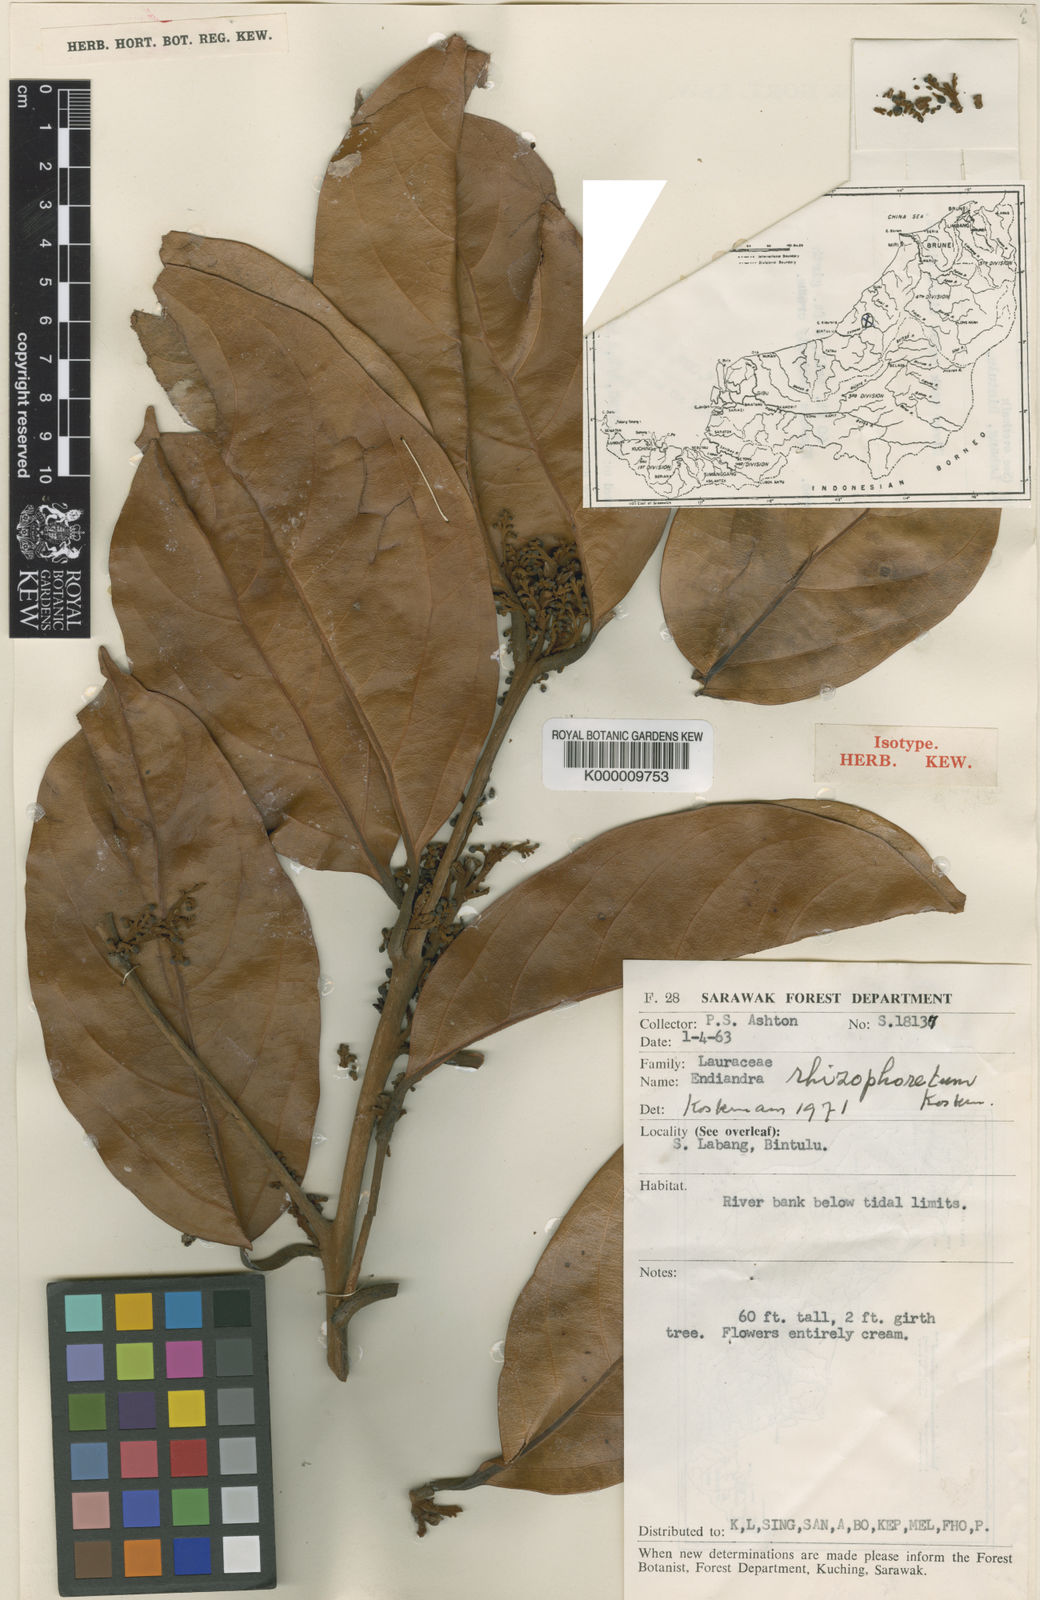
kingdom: Plantae
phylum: Tracheophyta
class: Magnoliopsida
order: Laurales
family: Lauraceae
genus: Endiandra
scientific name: Endiandra rhizophoretum
